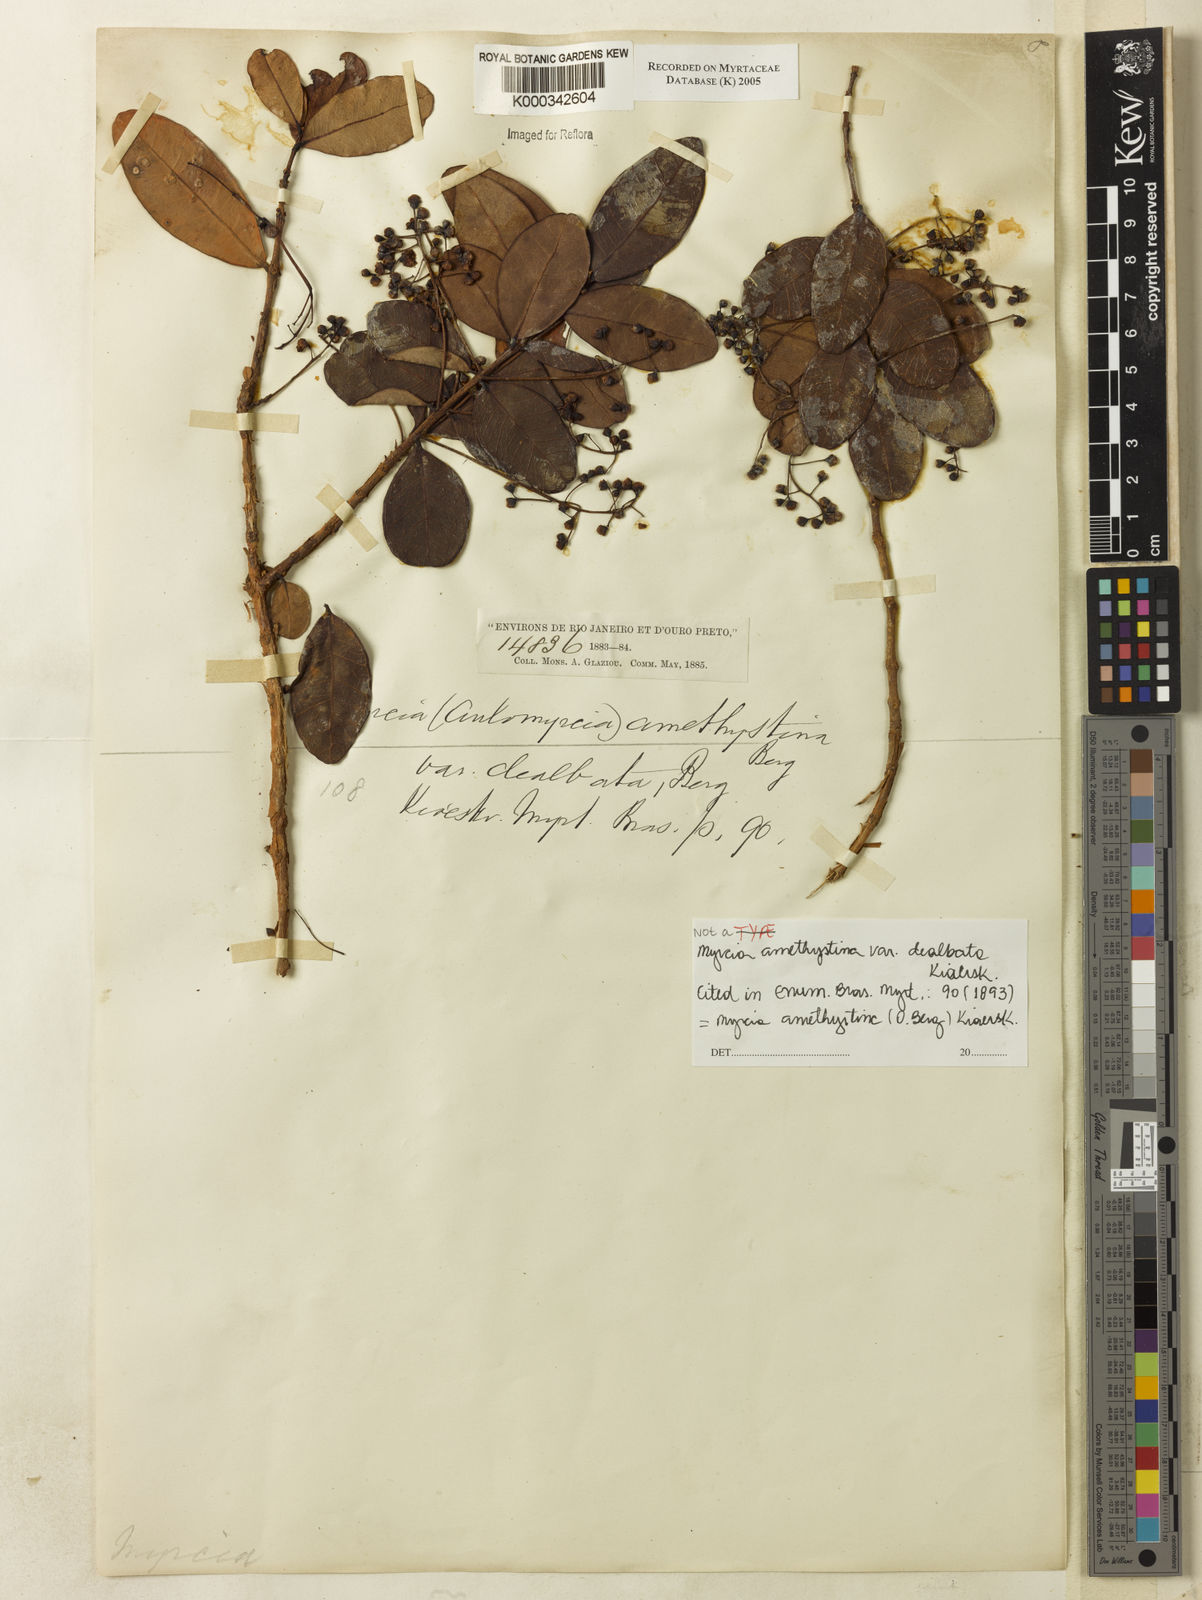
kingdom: Plantae
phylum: Tracheophyta
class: Magnoliopsida
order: Myrtales
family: Myrtaceae
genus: Myrcia
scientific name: Myrcia amethystina
